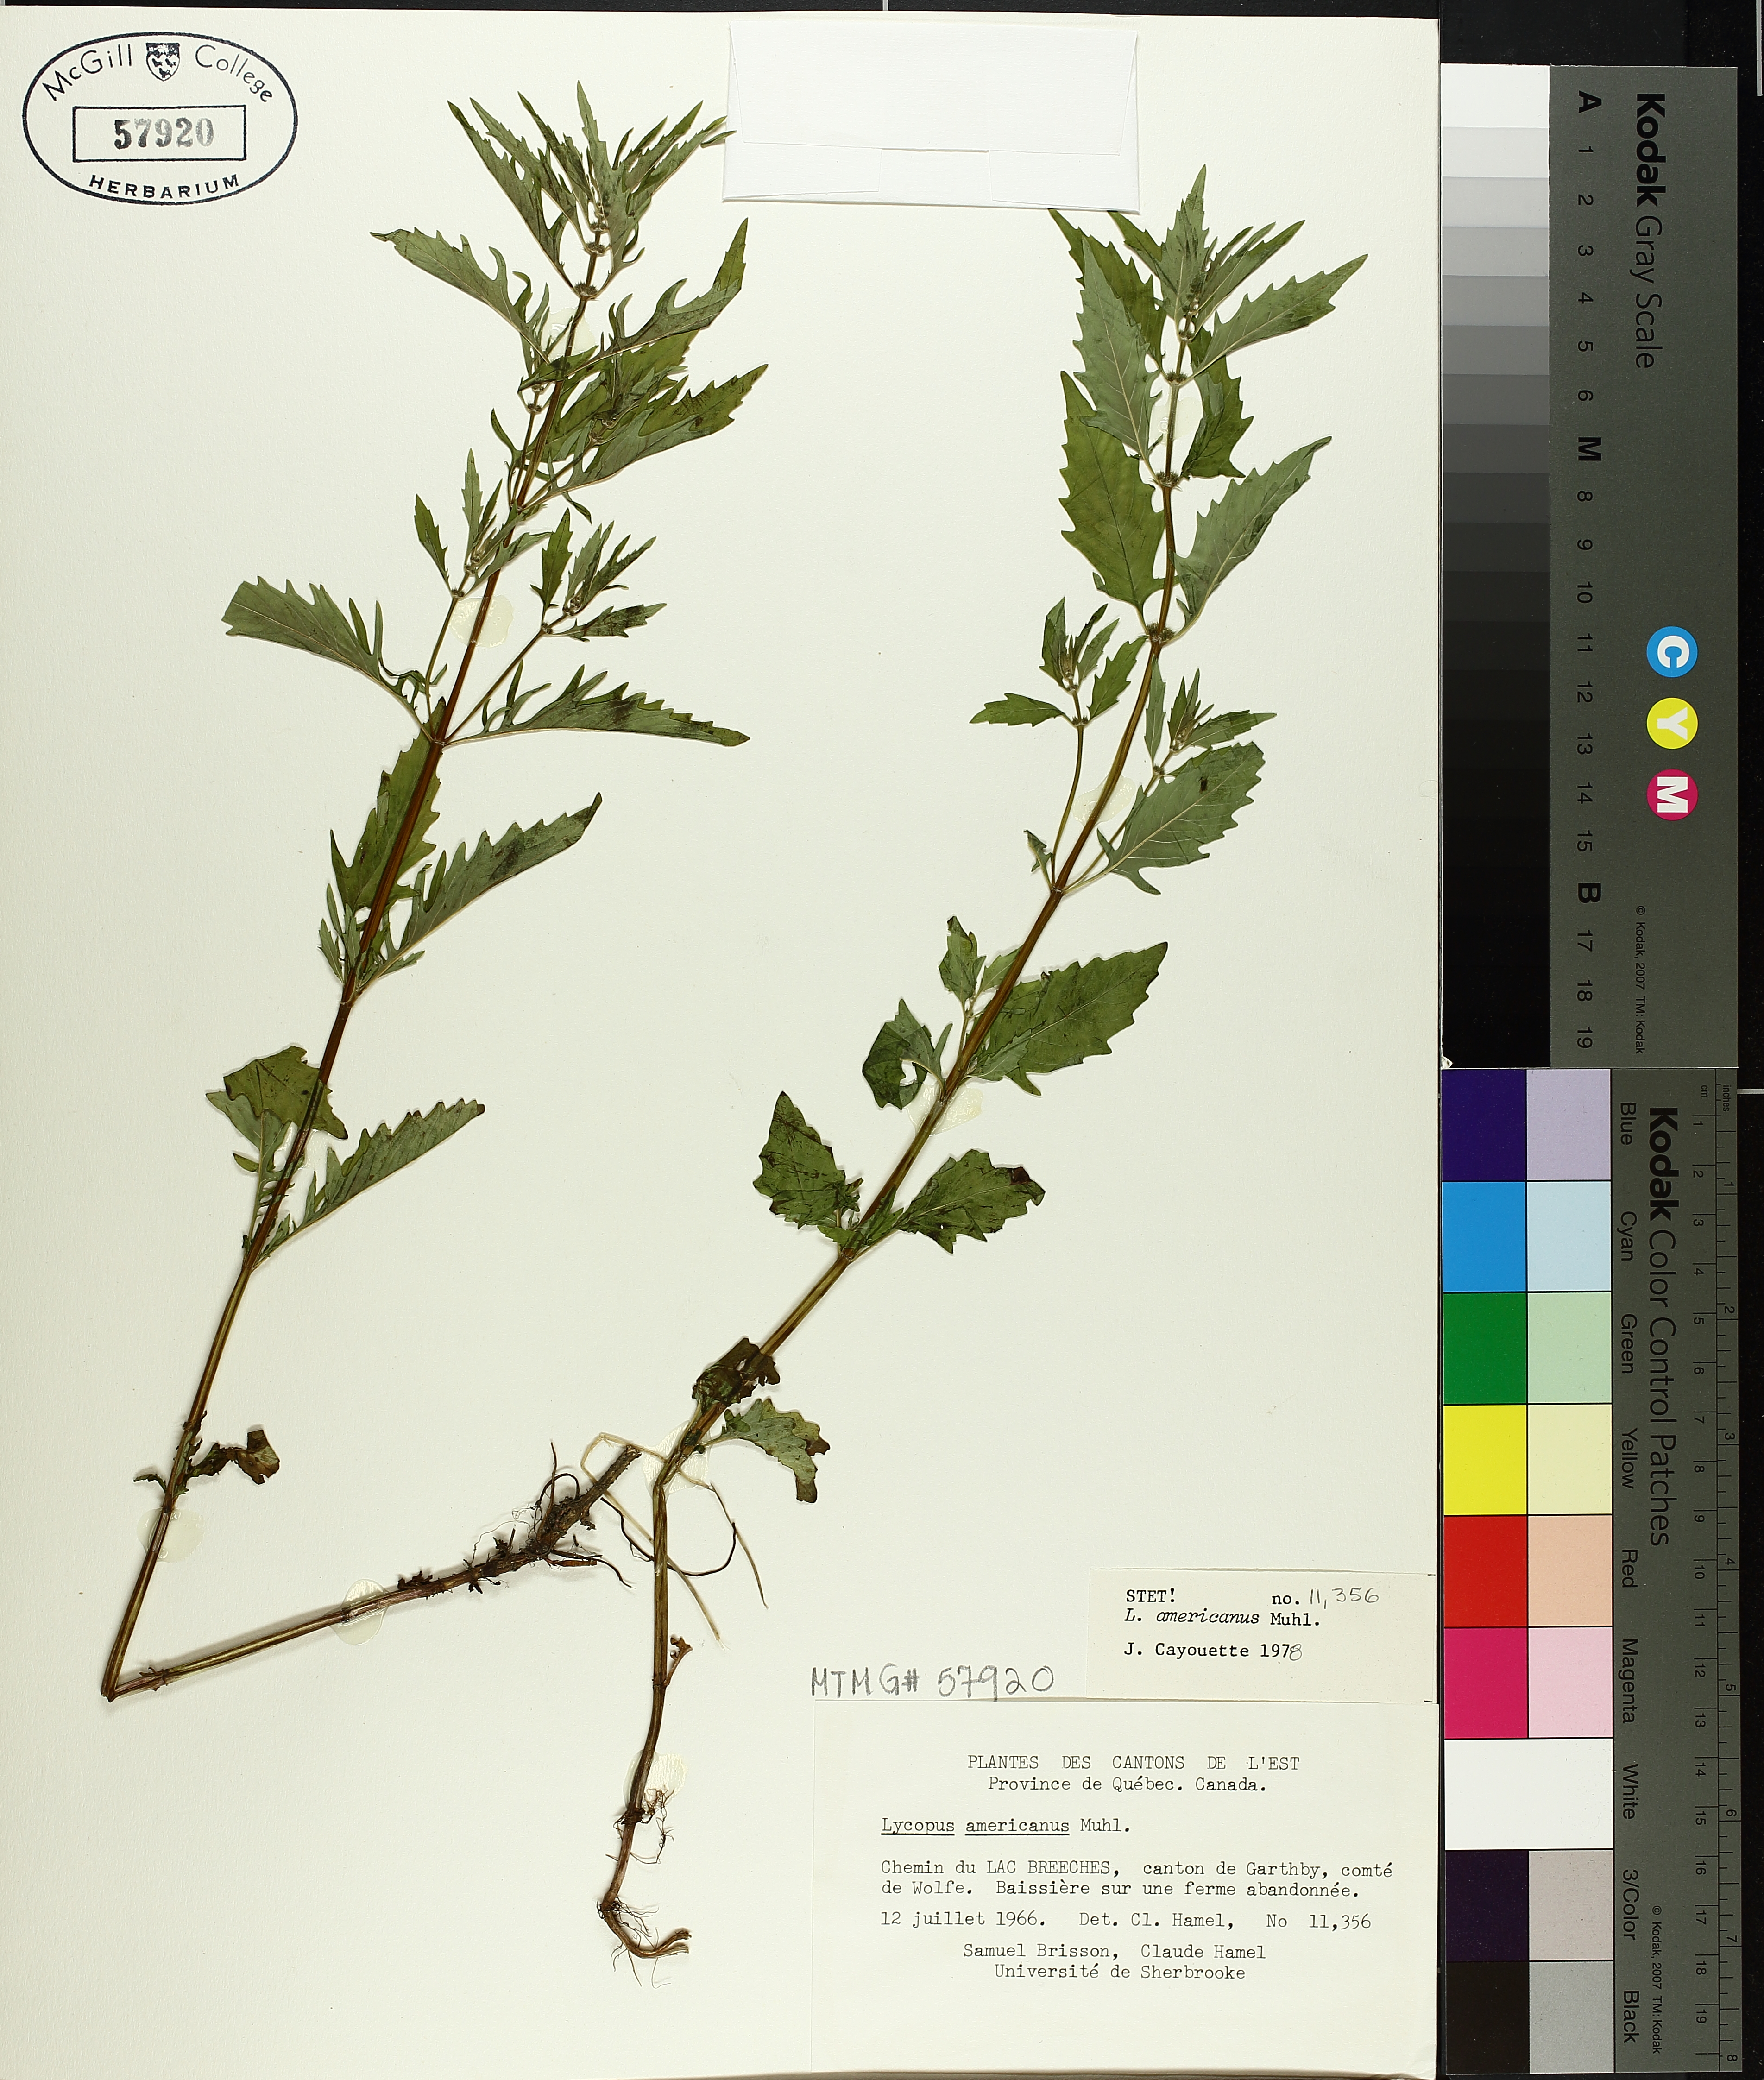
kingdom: Plantae
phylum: Tracheophyta
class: Magnoliopsida
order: Lamiales
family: Lamiaceae
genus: Lycopus
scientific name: Lycopus americanus
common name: American bugleweed
